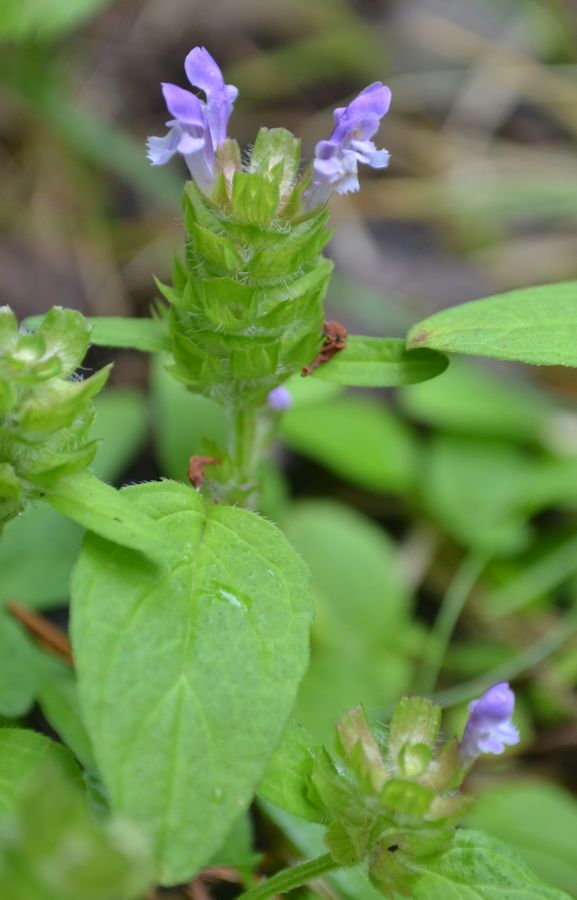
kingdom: Plantae
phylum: Tracheophyta
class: Magnoliopsida
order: Lamiales
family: Lamiaceae
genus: Prunella
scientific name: Prunella vulgaris
